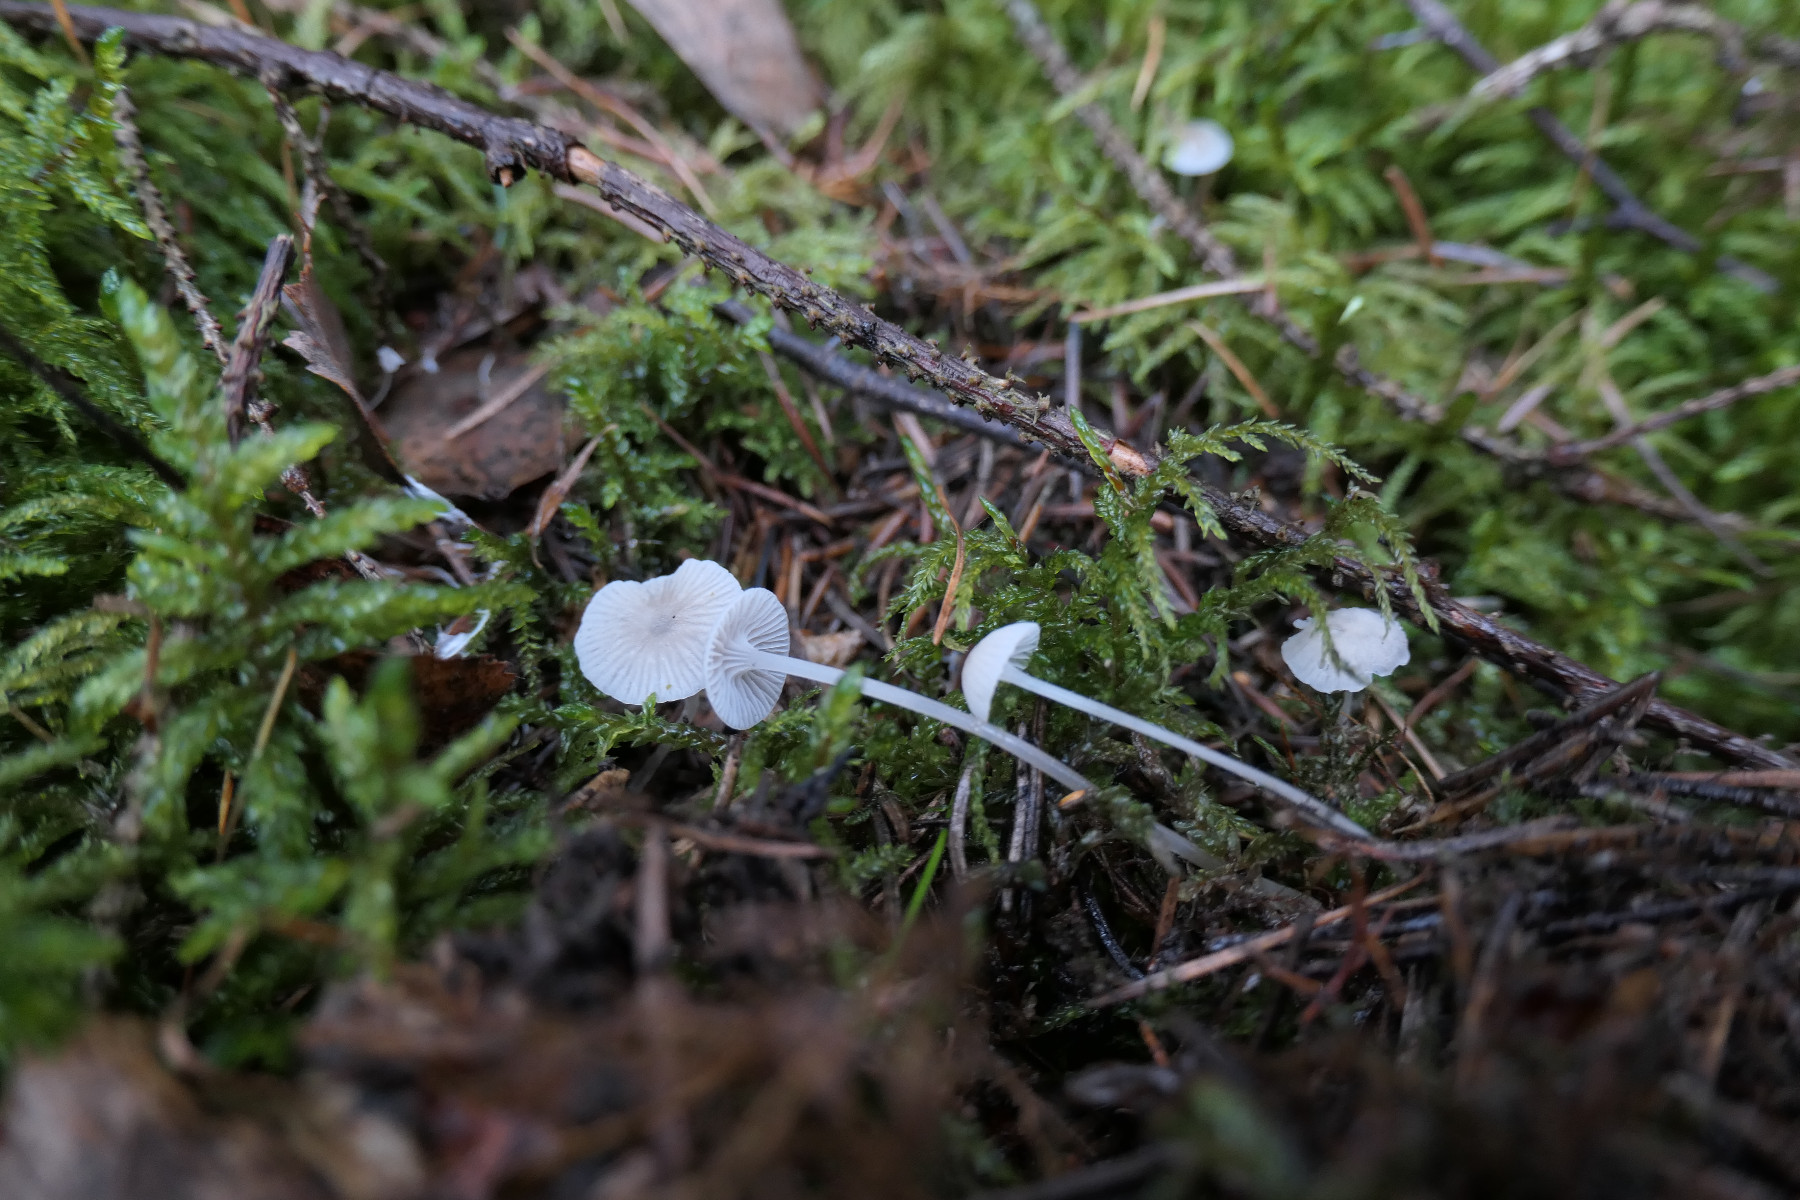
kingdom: Fungi
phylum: Basidiomycota
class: Agaricomycetes
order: Agaricales
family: Mycenaceae
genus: Mycena
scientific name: Mycena cinerella
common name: mel-huesvamp
